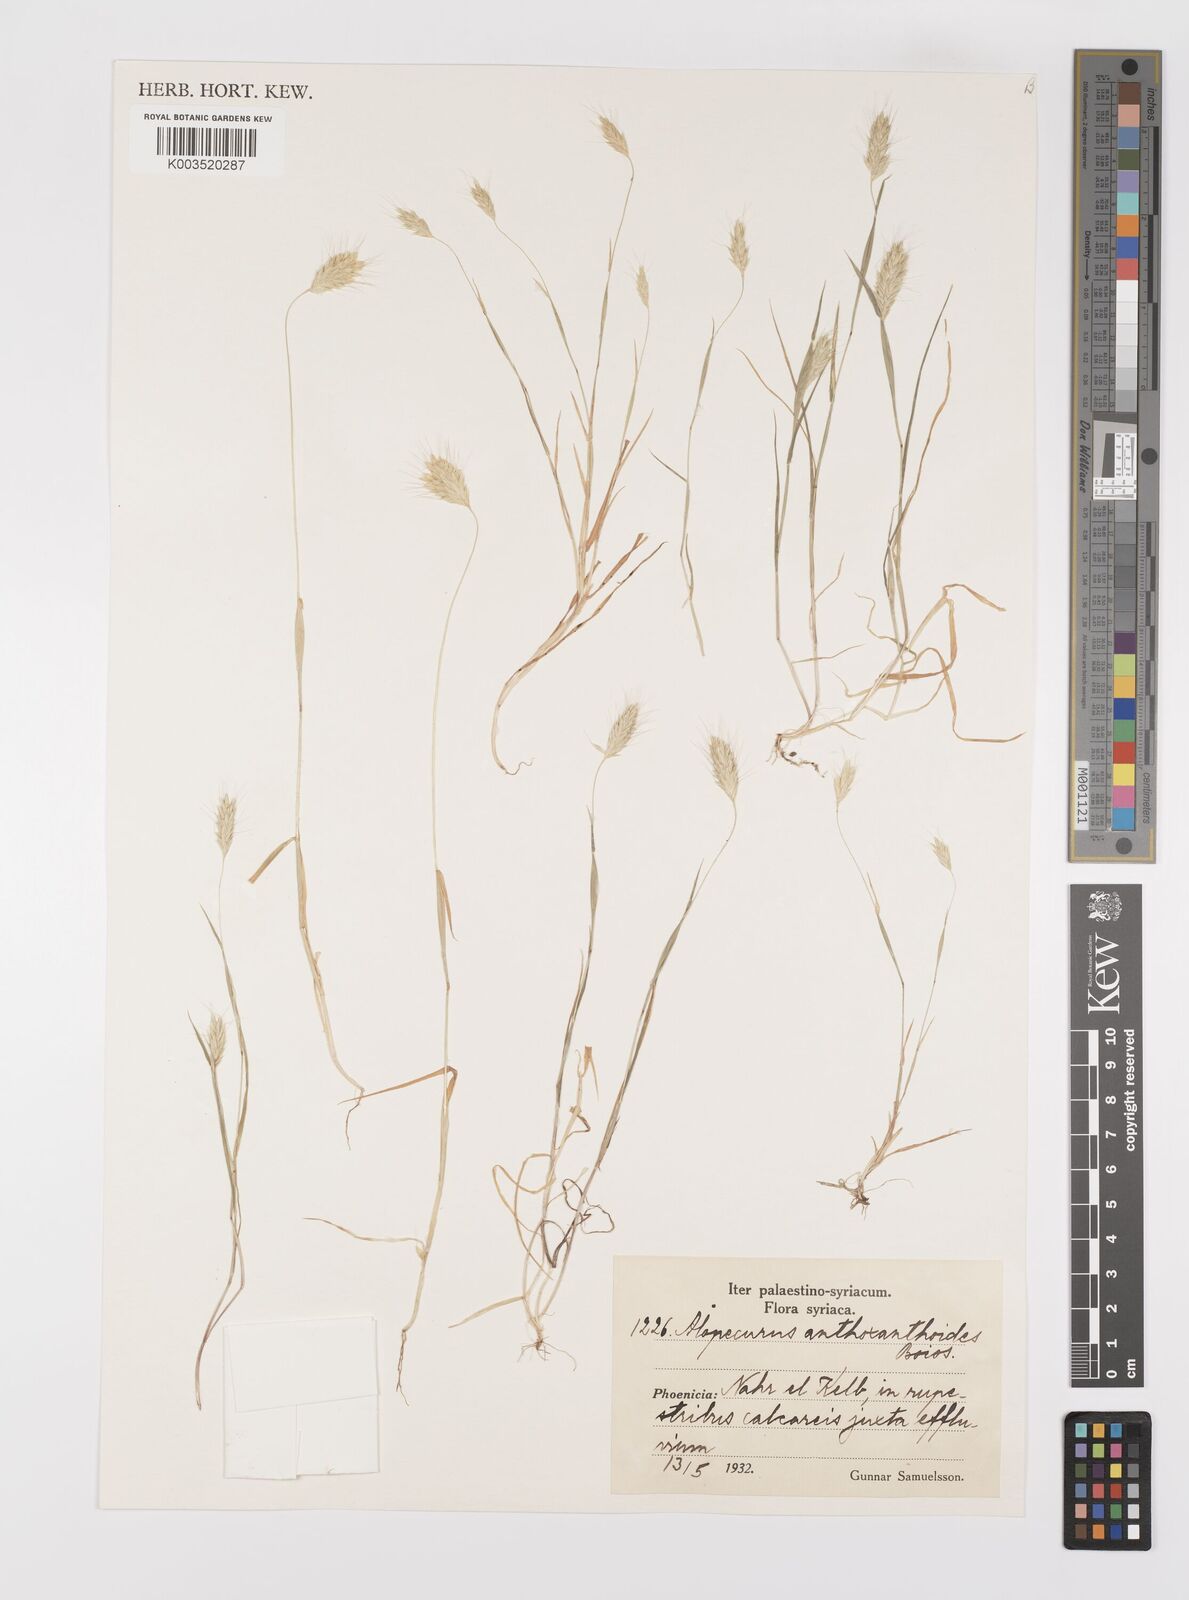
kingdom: Plantae
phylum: Tracheophyta
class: Liliopsida
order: Poales
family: Poaceae
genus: Alopecurus
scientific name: Alopecurus utriculatus
